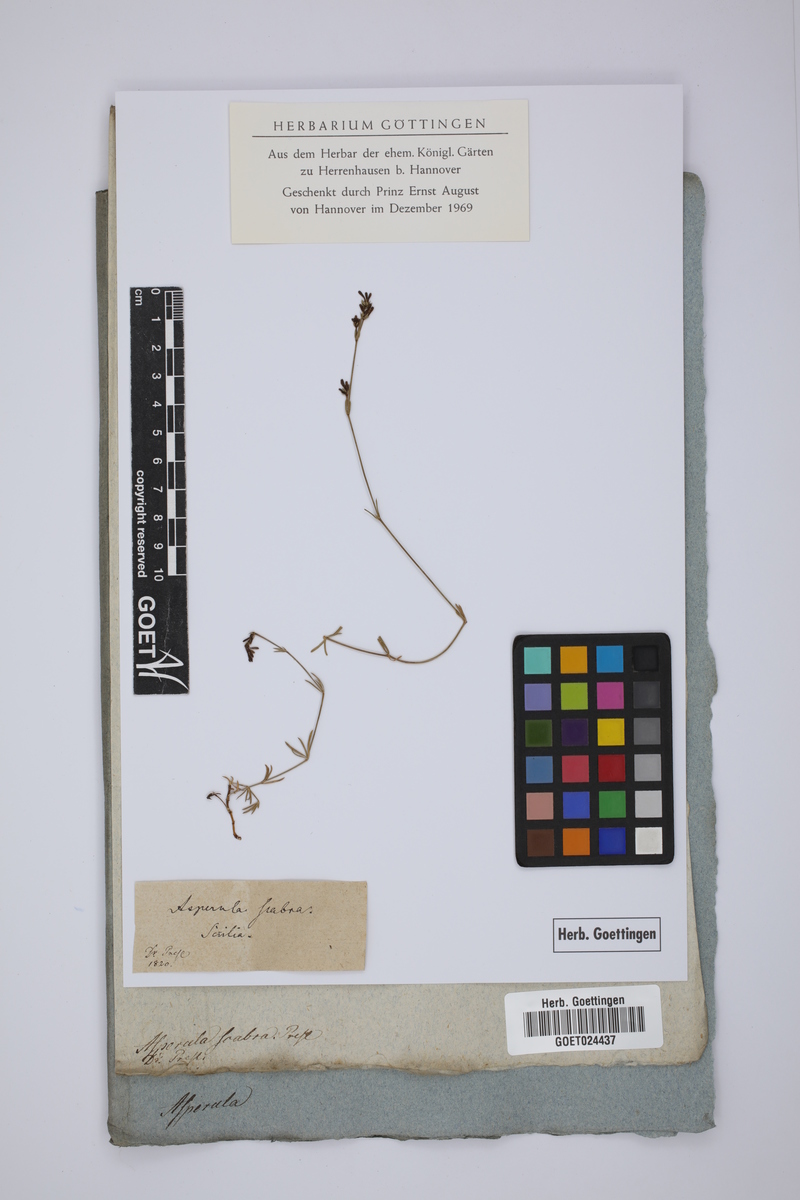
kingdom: Plantae
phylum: Tracheophyta
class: Magnoliopsida
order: Gentianales
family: Rubiaceae
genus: Cynanchica
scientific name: Cynanchica aristata
